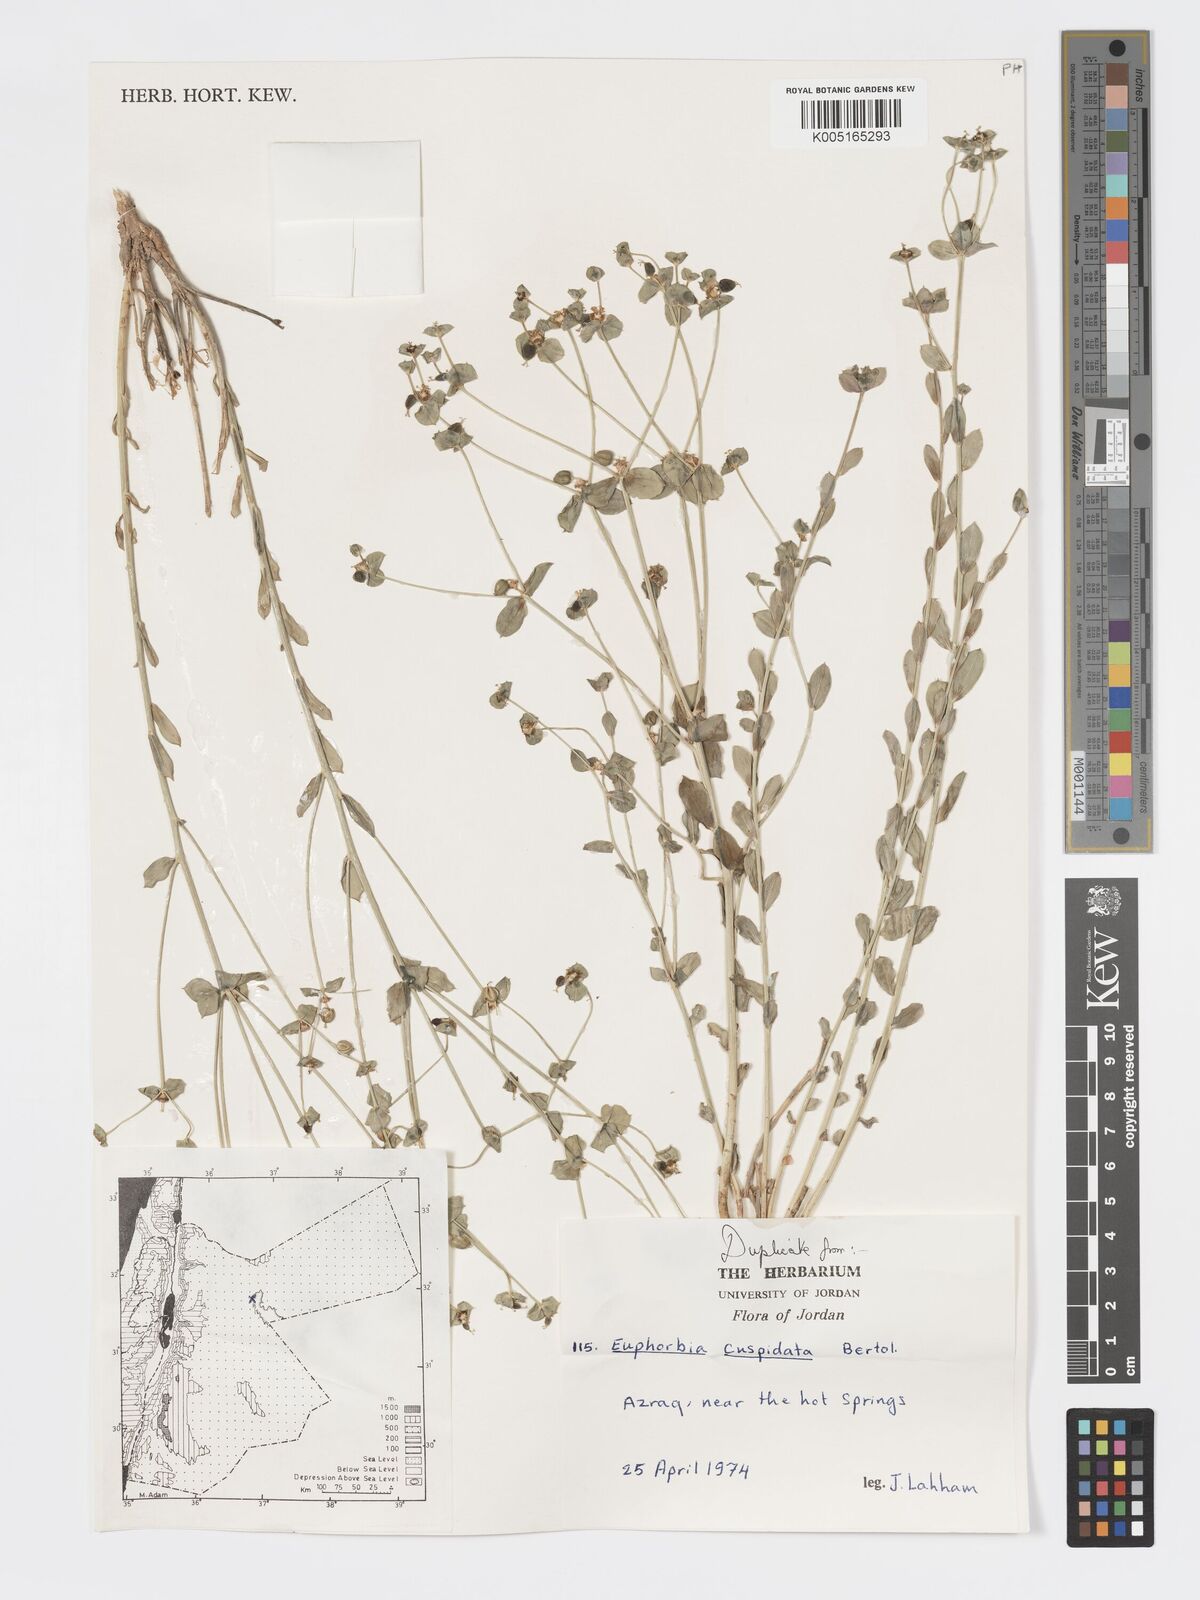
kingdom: Plantae
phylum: Tracheophyta
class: Magnoliopsida
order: Malpighiales
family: Euphorbiaceae
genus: Euphorbia
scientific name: Euphorbia
